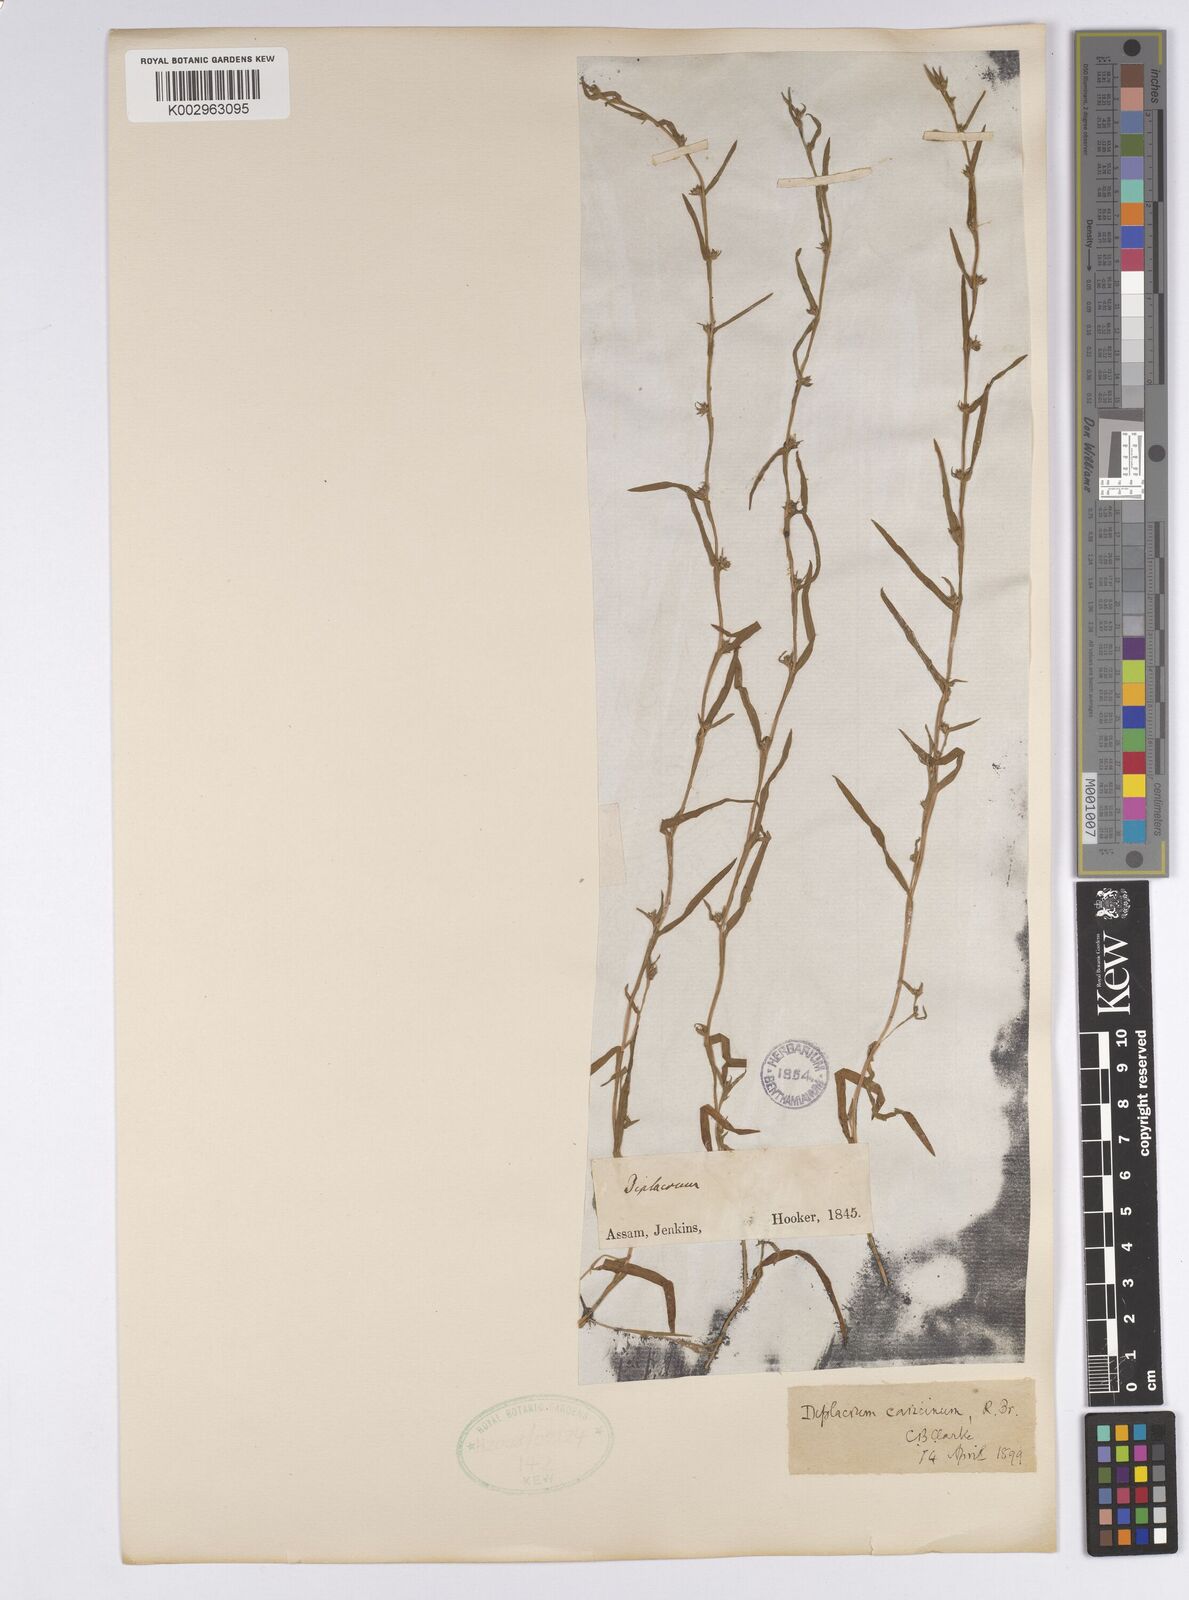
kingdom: Plantae
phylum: Tracheophyta
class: Liliopsida
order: Poales
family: Cyperaceae
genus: Diplacrum
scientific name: Diplacrum caricinum
